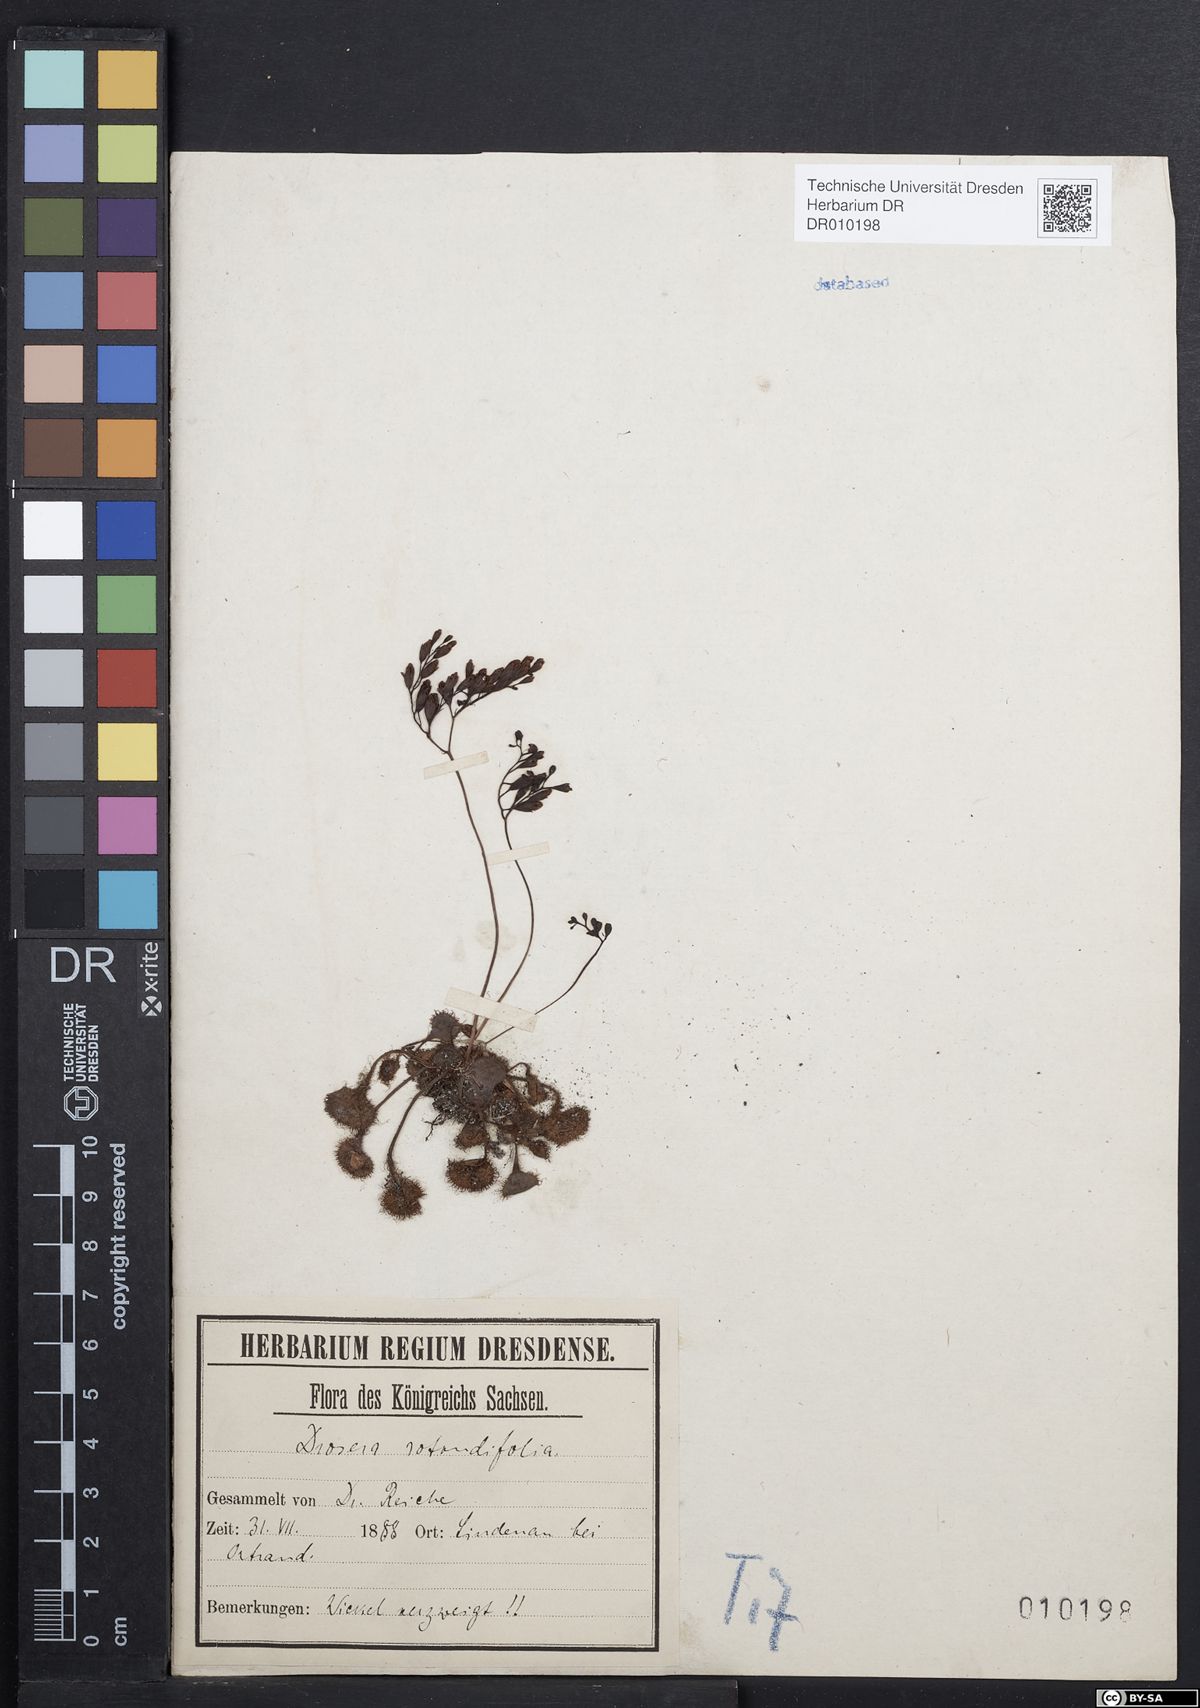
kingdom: Plantae
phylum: Tracheophyta
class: Magnoliopsida
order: Caryophyllales
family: Droseraceae
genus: Drosera
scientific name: Drosera rotundifolia
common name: Round-leaved sundew
